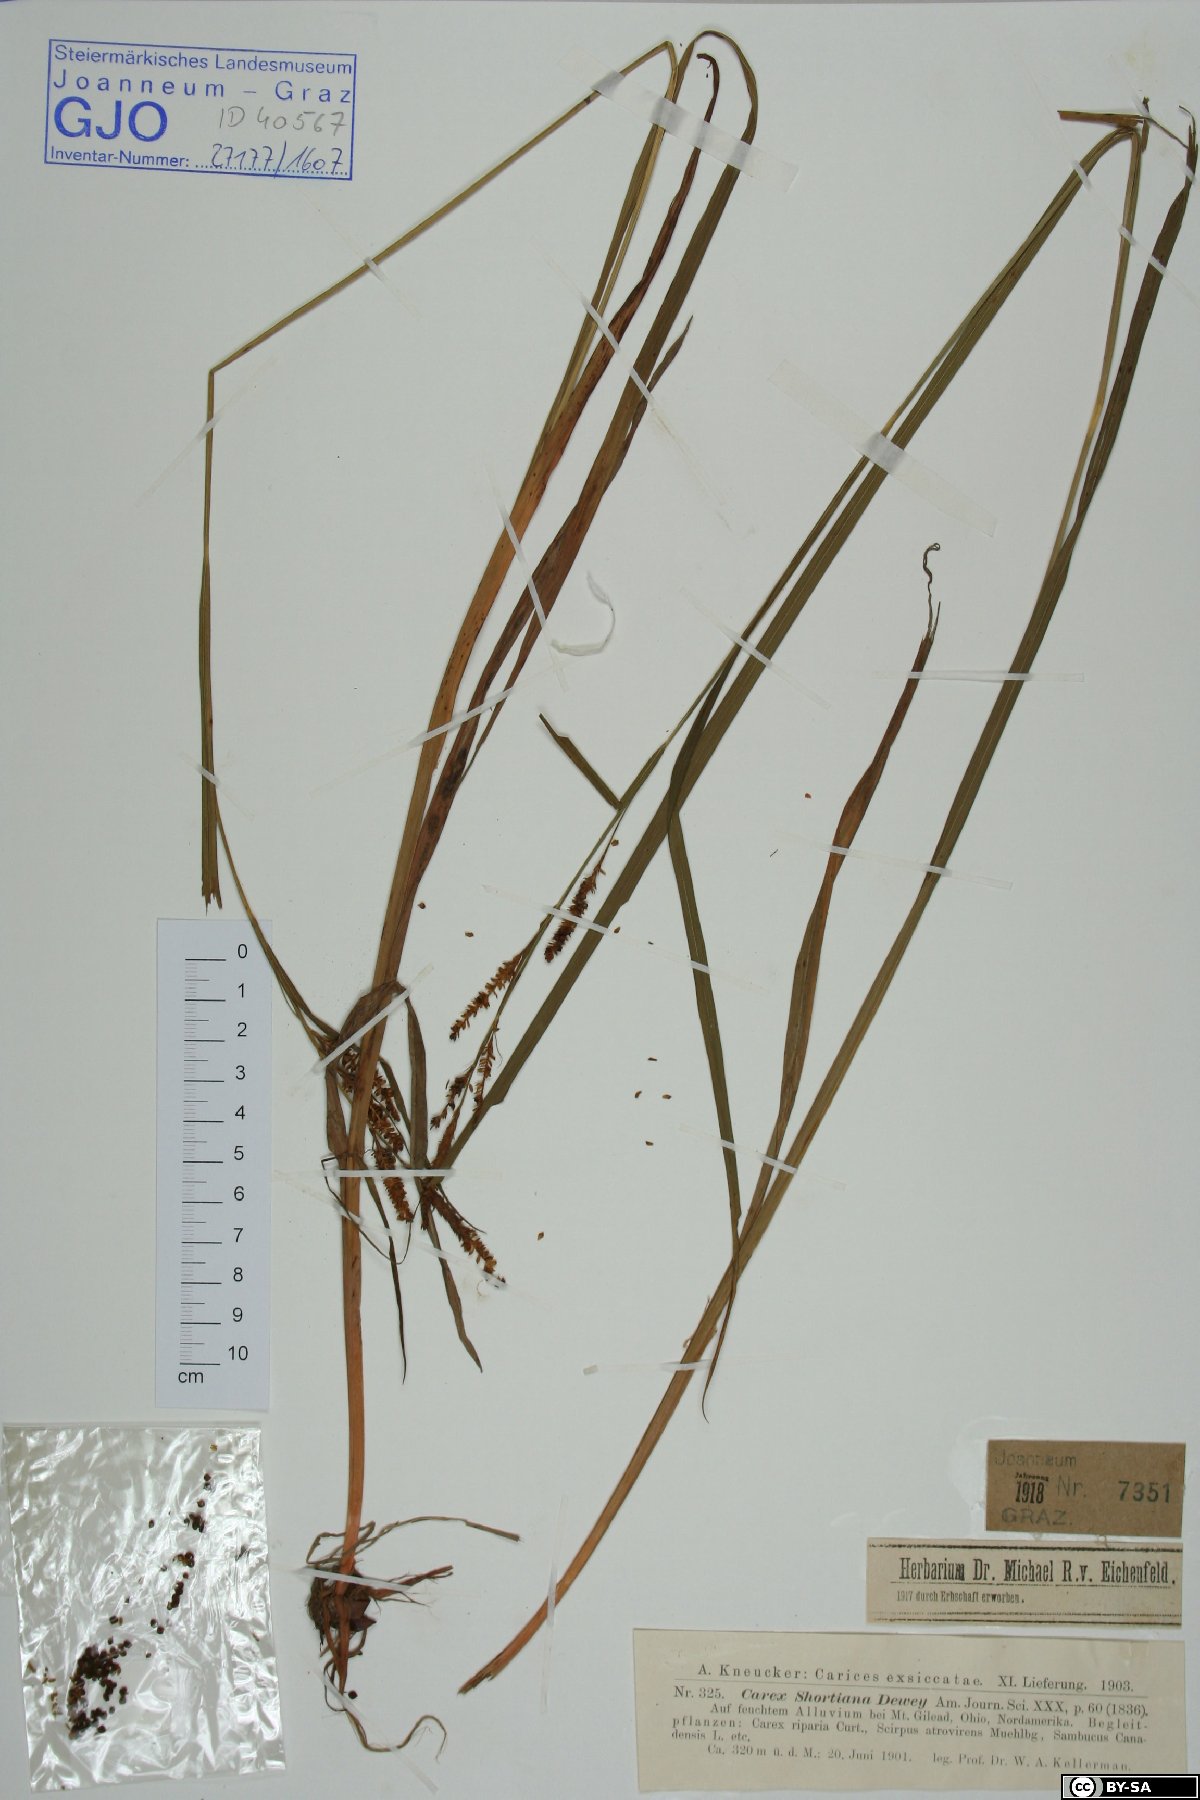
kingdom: Plantae
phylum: Tracheophyta
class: Liliopsida
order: Poales
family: Cyperaceae
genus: Carex
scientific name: Carex shortiana
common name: Short's sedge
